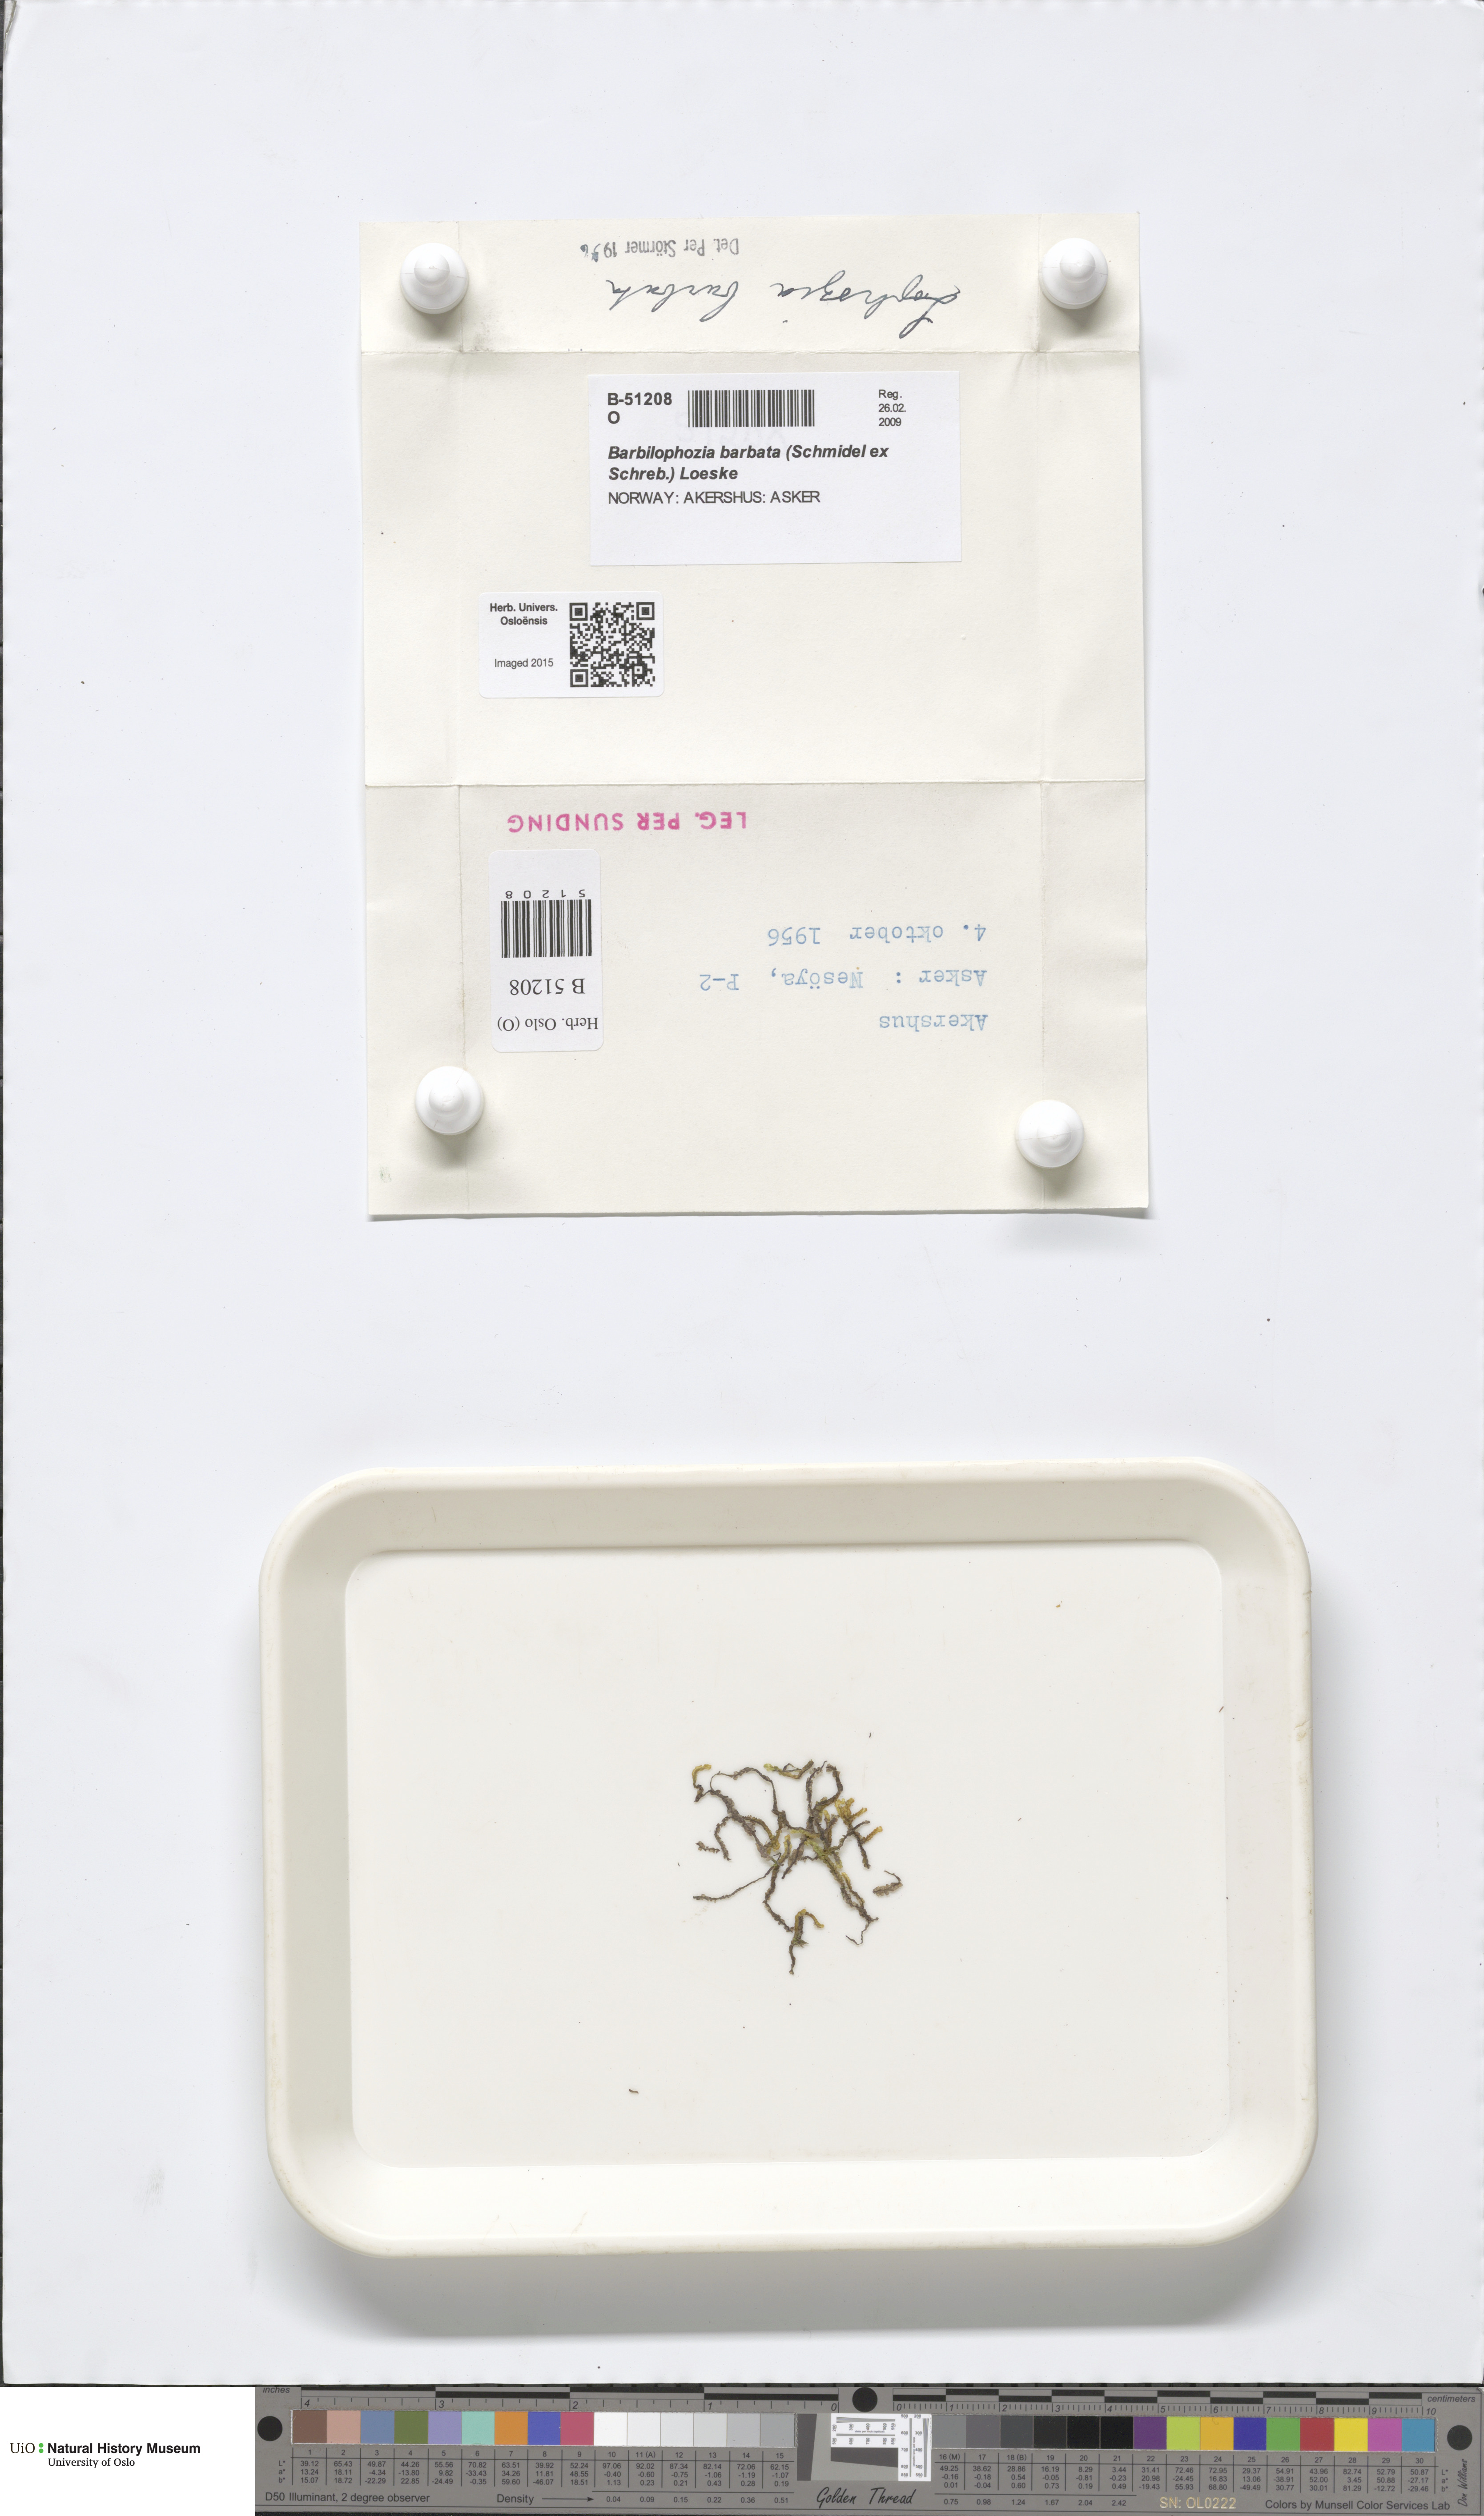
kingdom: Plantae
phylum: Marchantiophyta
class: Jungermanniopsida
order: Jungermanniales
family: Anastrophyllaceae
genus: Barbilophozia
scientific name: Barbilophozia barbata
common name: Bearded pawwort
